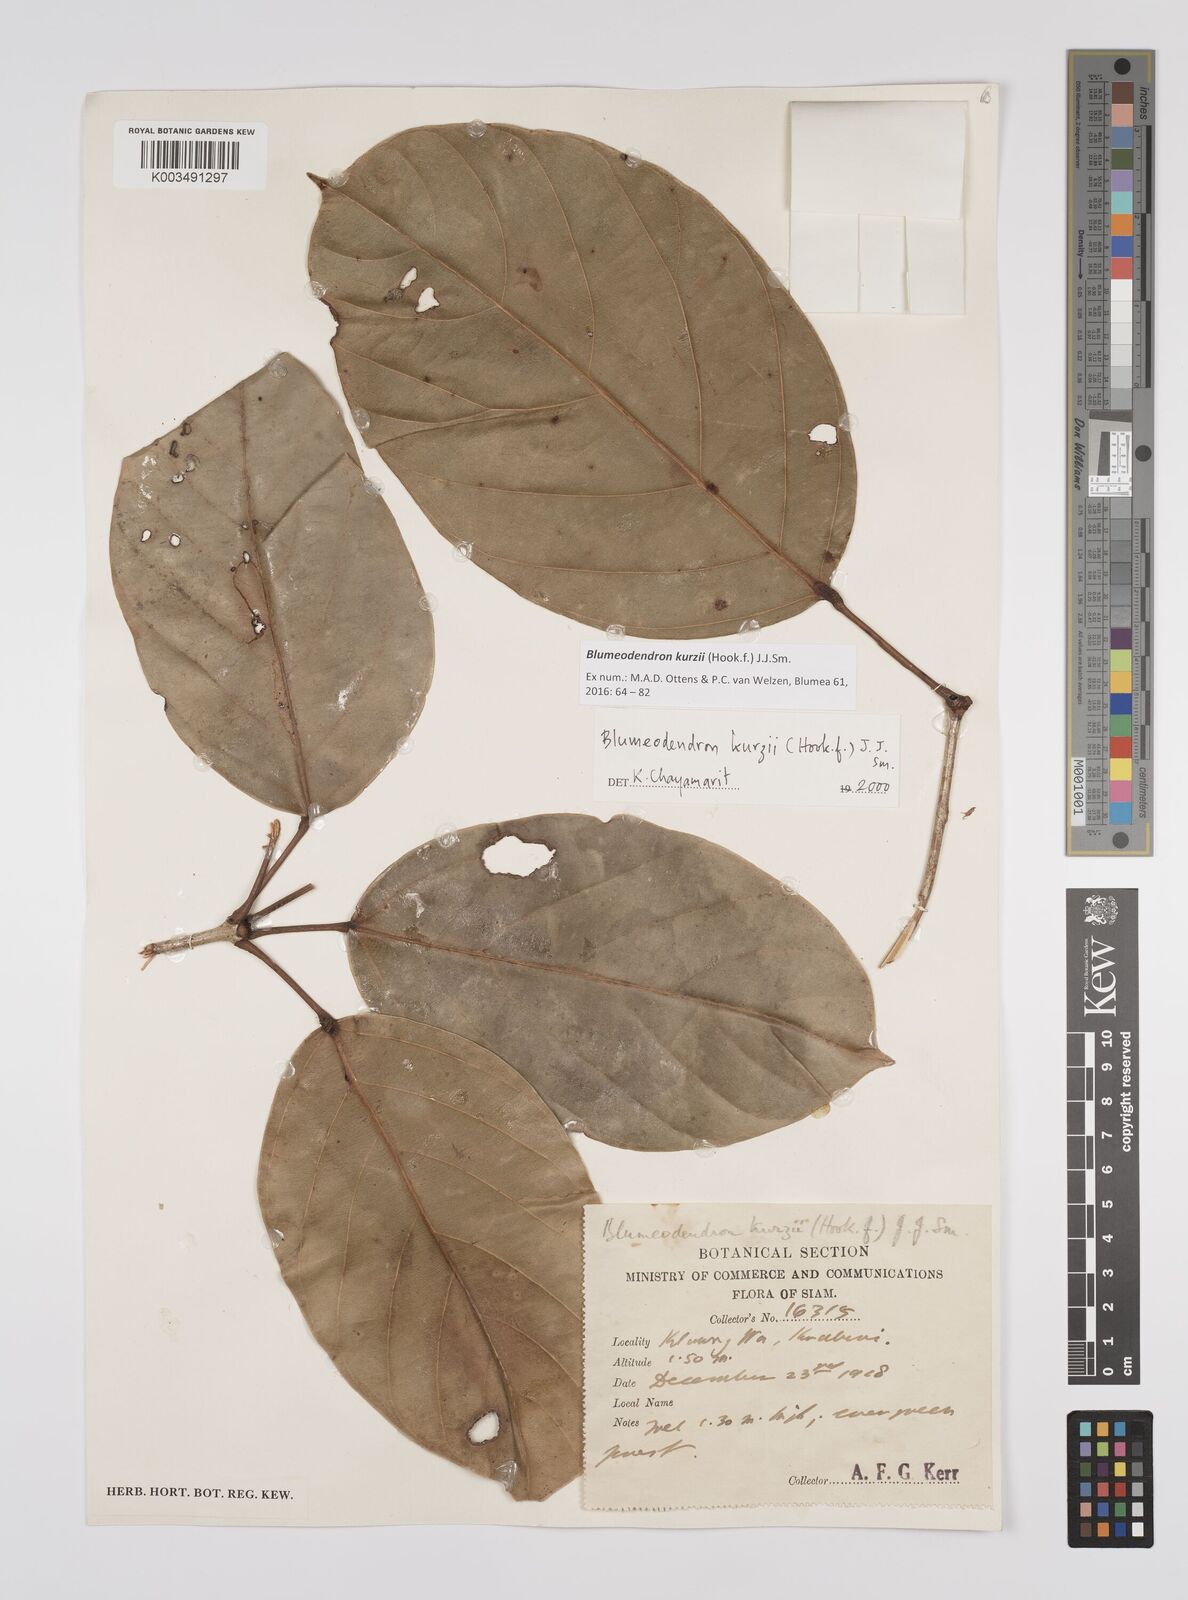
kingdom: Plantae
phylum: Tracheophyta
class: Magnoliopsida
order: Malpighiales
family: Euphorbiaceae
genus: Blumeodendron
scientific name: Blumeodendron kurzii
